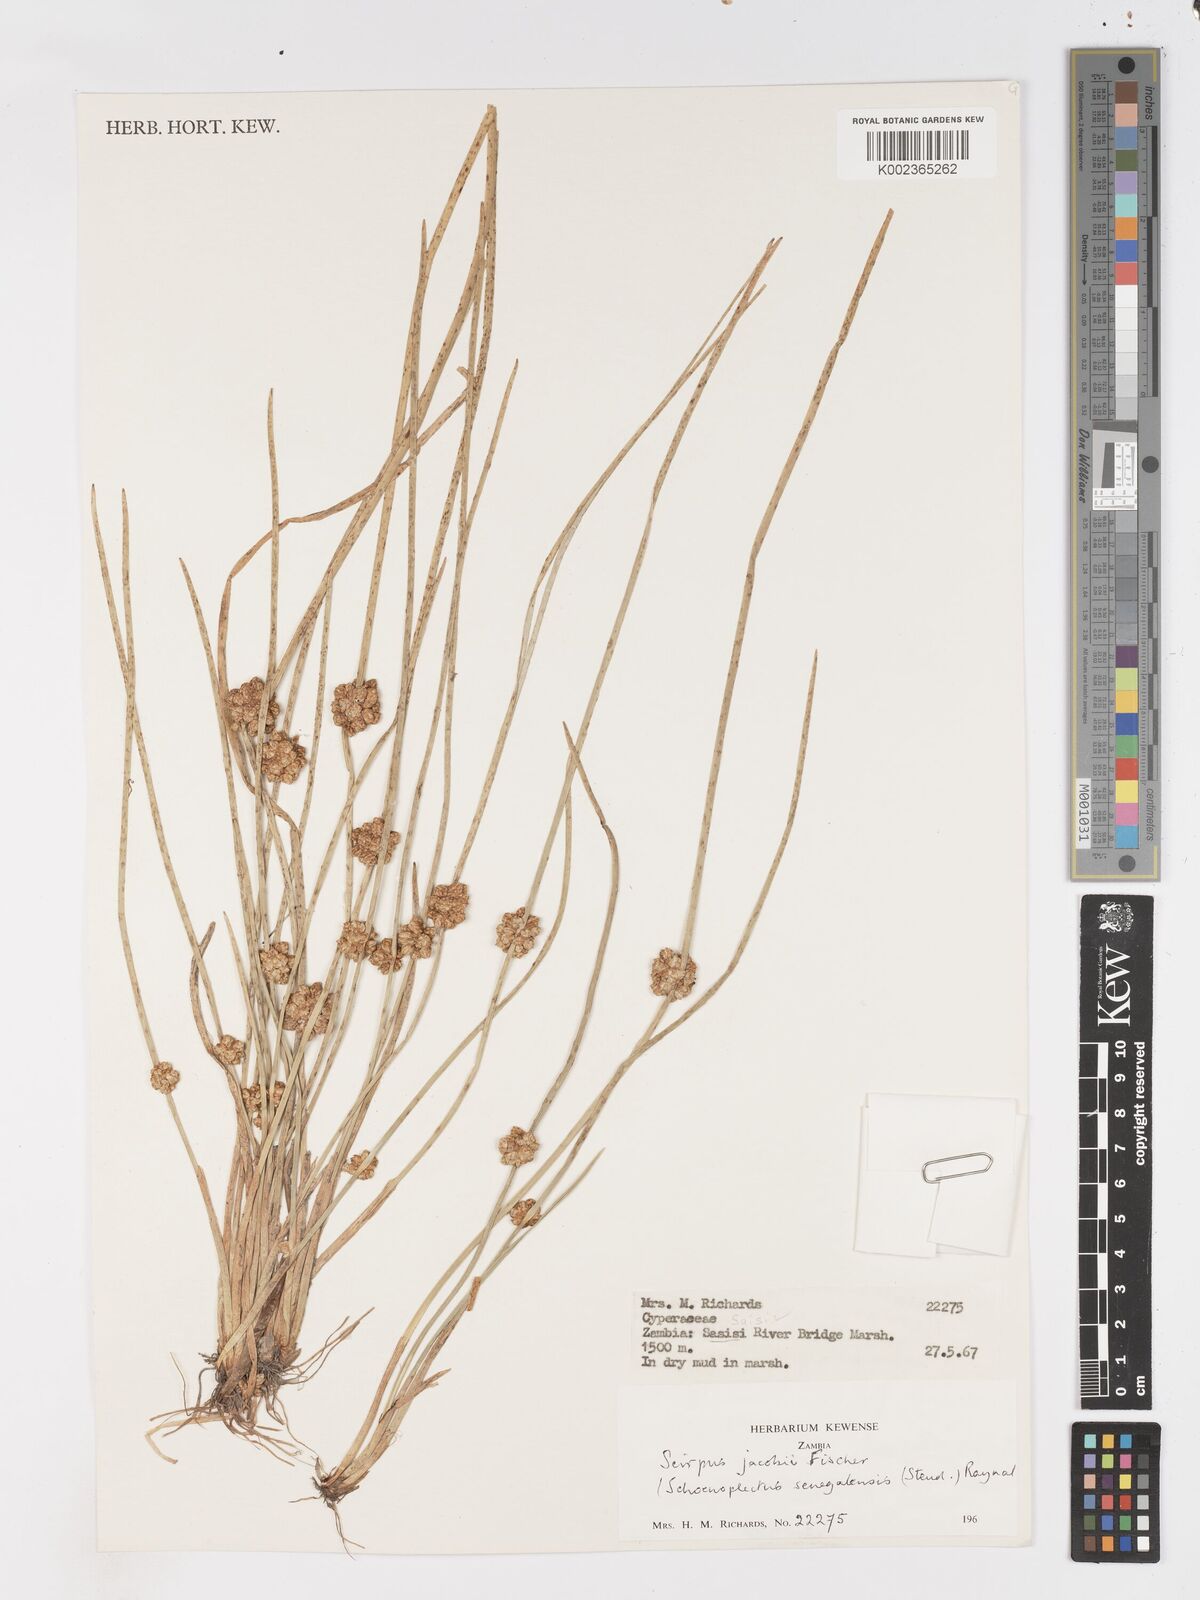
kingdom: Plantae
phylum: Tracheophyta
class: Liliopsida
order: Poales
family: Cyperaceae
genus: Schoenoplectiella
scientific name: Schoenoplectiella senegalensis
